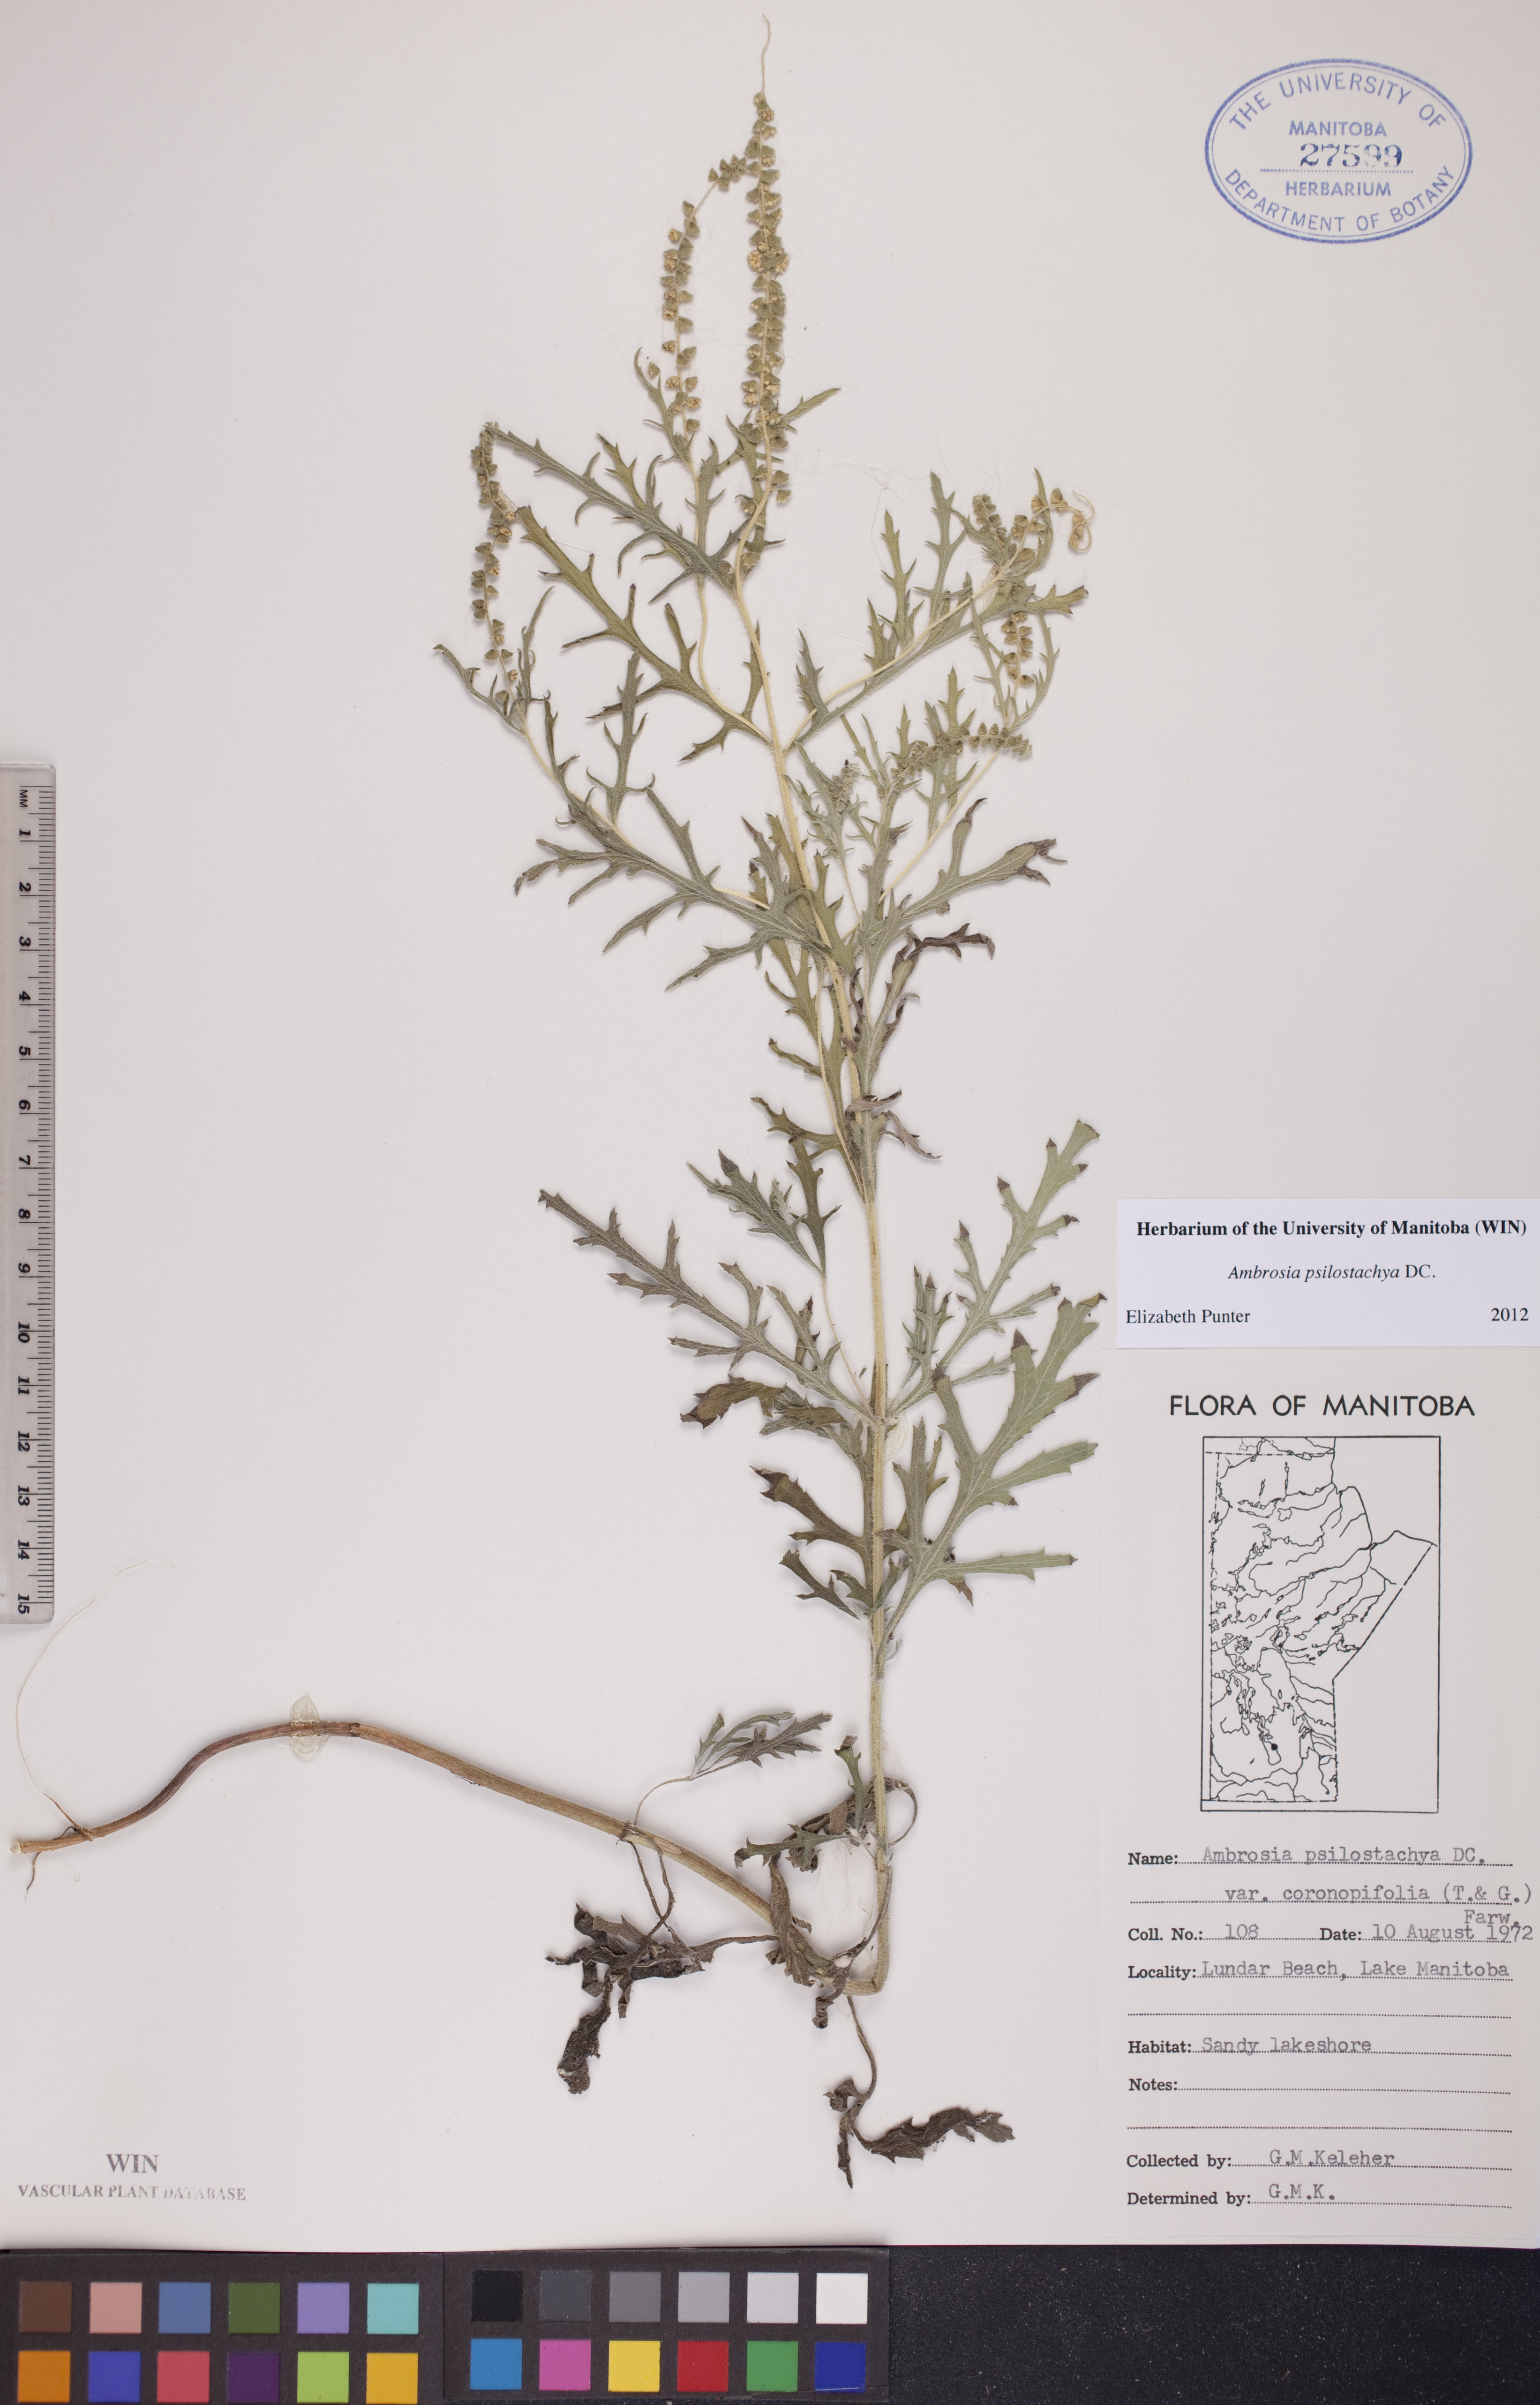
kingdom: Plantae
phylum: Tracheophyta
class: Magnoliopsida
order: Asterales
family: Asteraceae
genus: Ambrosia
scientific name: Ambrosia psilostachya
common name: Perennial ragweed
